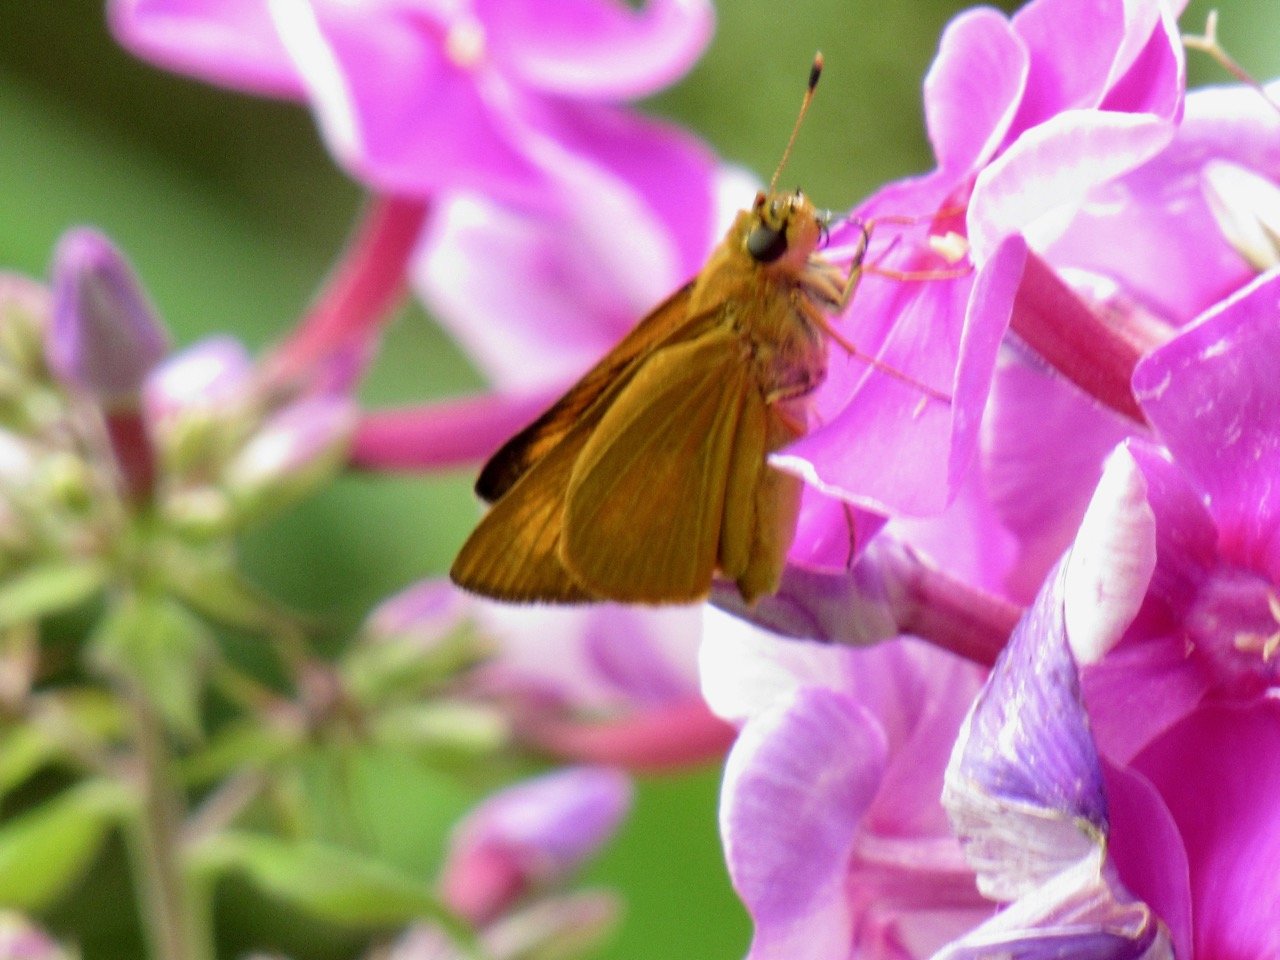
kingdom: Animalia
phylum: Arthropoda
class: Insecta
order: Lepidoptera
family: Hesperiidae
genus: Atrytone
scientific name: Atrytone delaware
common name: Delaware Skipper
